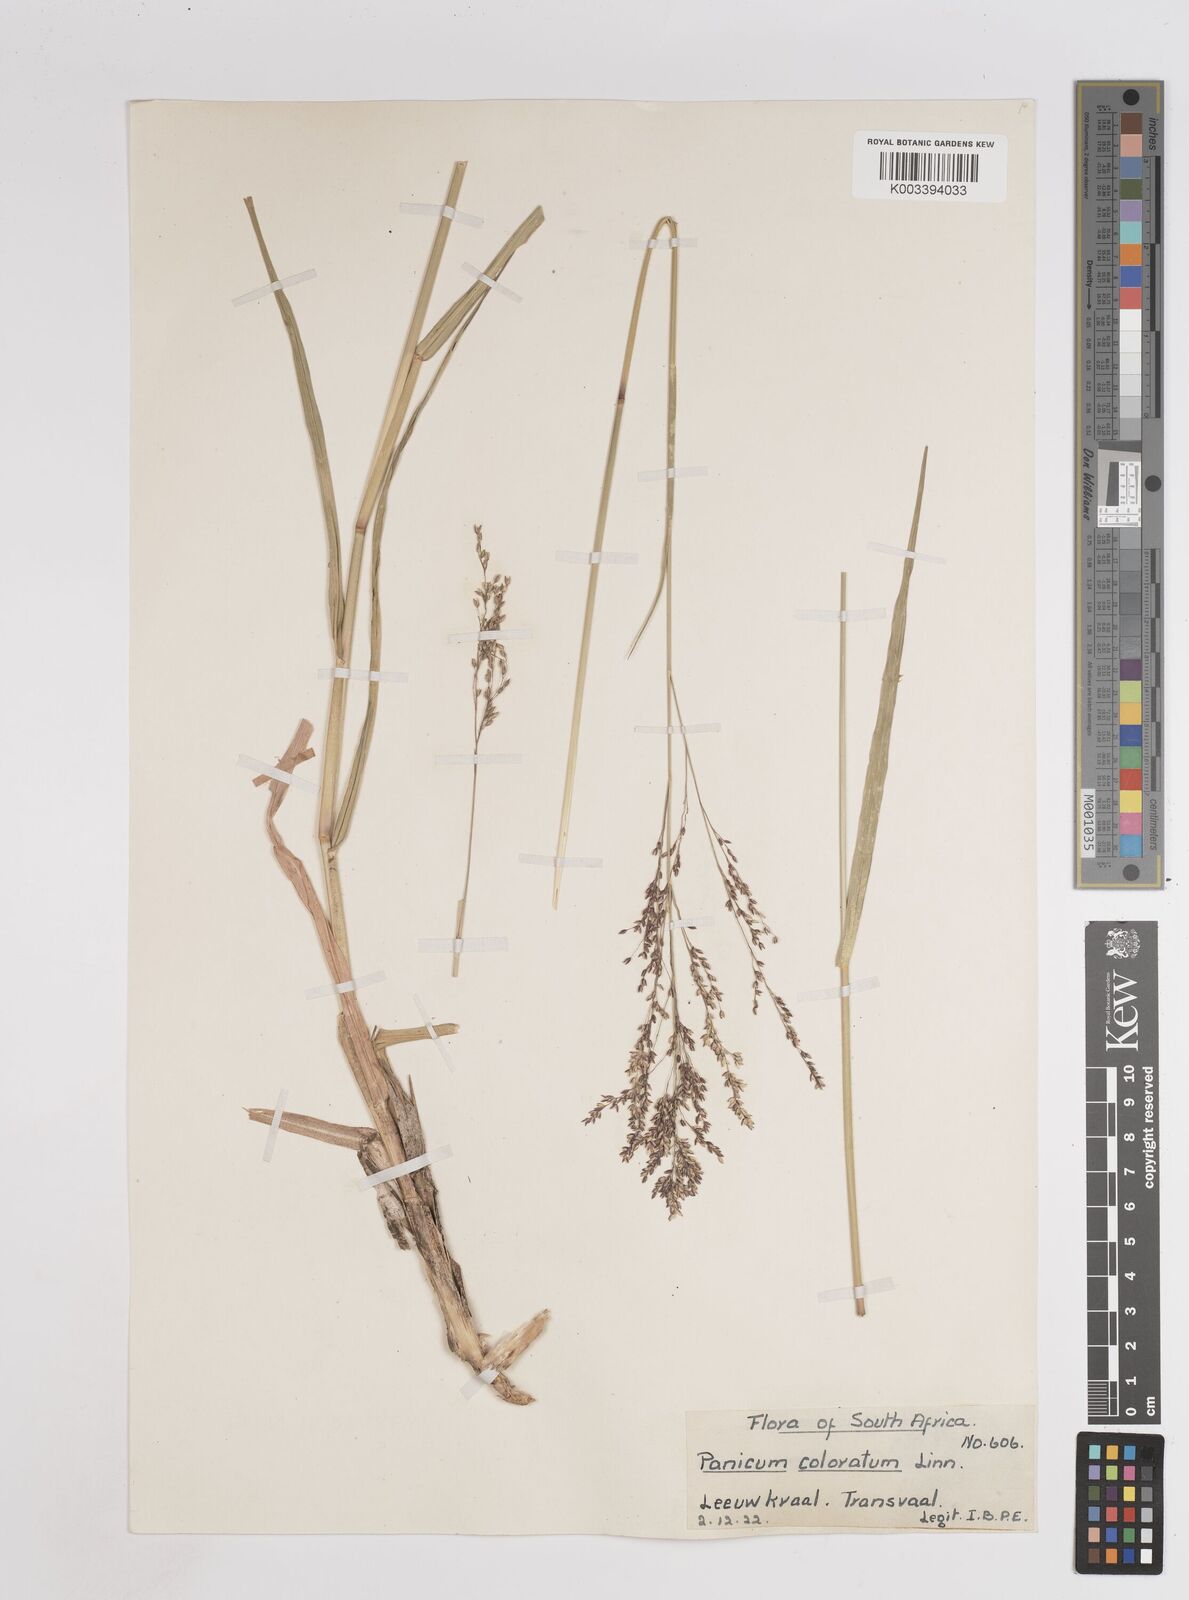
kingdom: Plantae
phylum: Tracheophyta
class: Liliopsida
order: Poales
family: Poaceae
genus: Panicum
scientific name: Panicum coloratum
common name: Kleingrass
